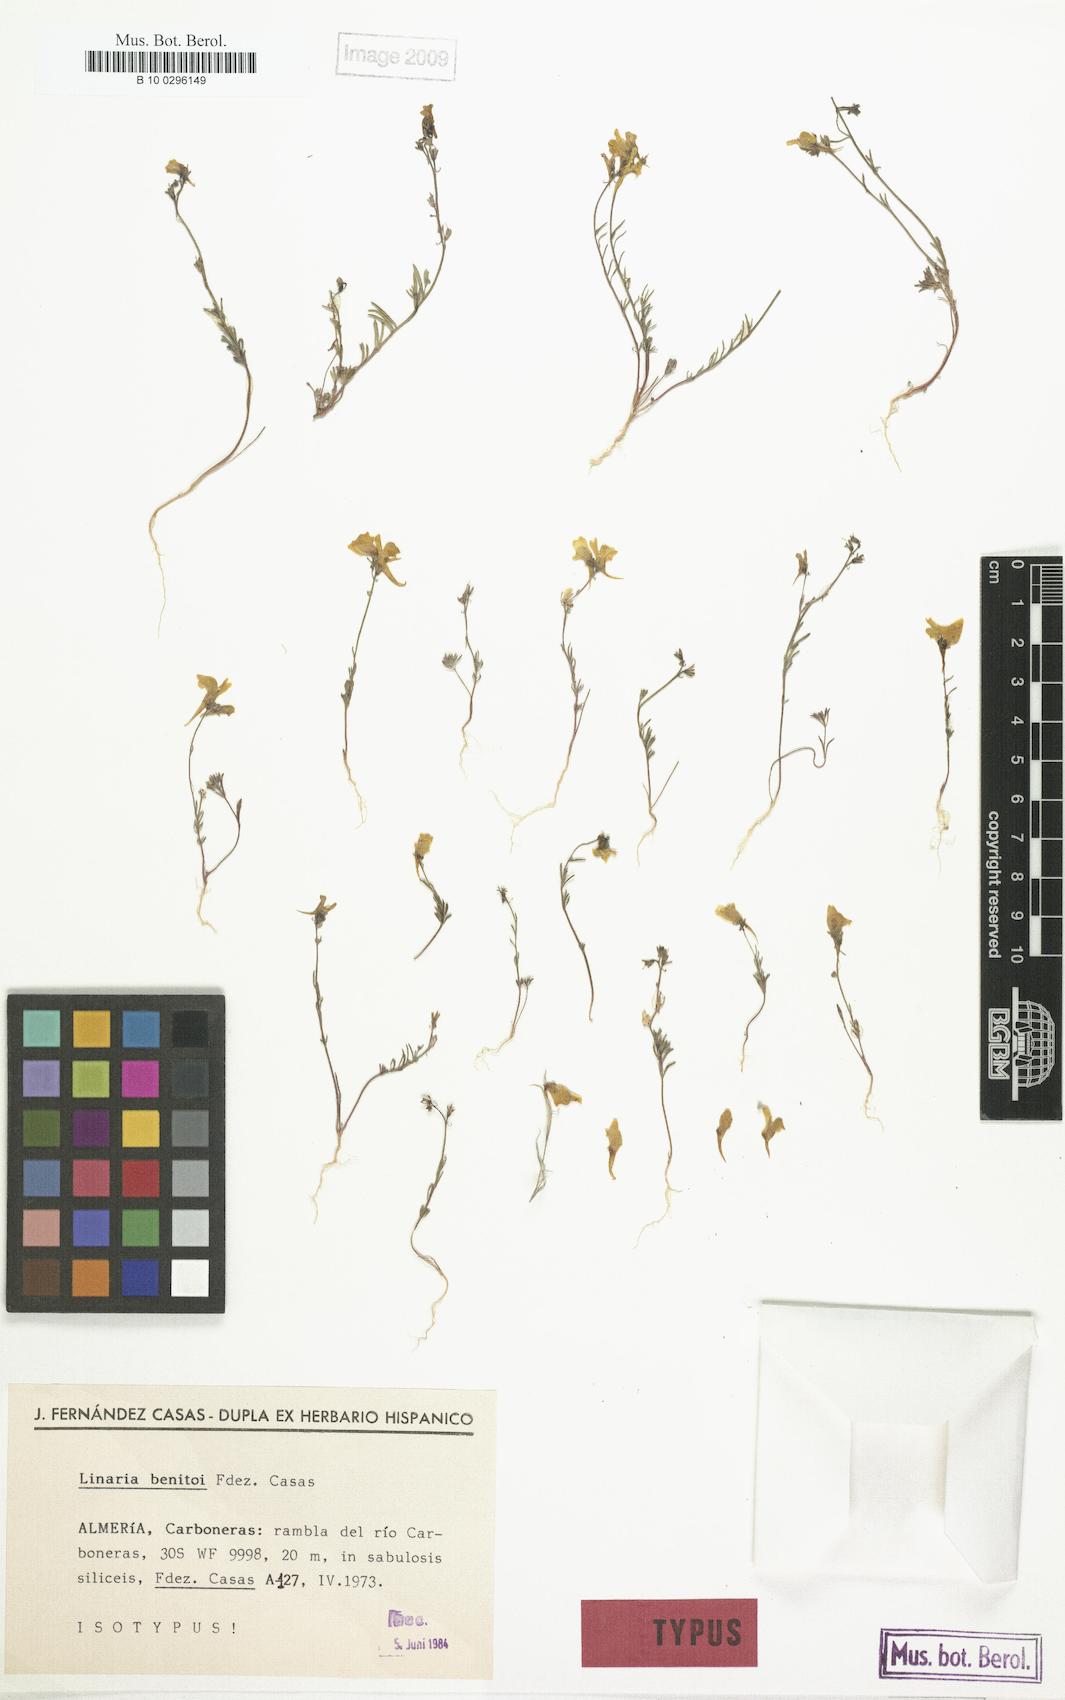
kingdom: Plantae
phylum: Tracheophyta
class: Magnoliopsida
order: Lamiales
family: Plantaginaceae
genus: Linaria
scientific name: Linaria oblongifolia
